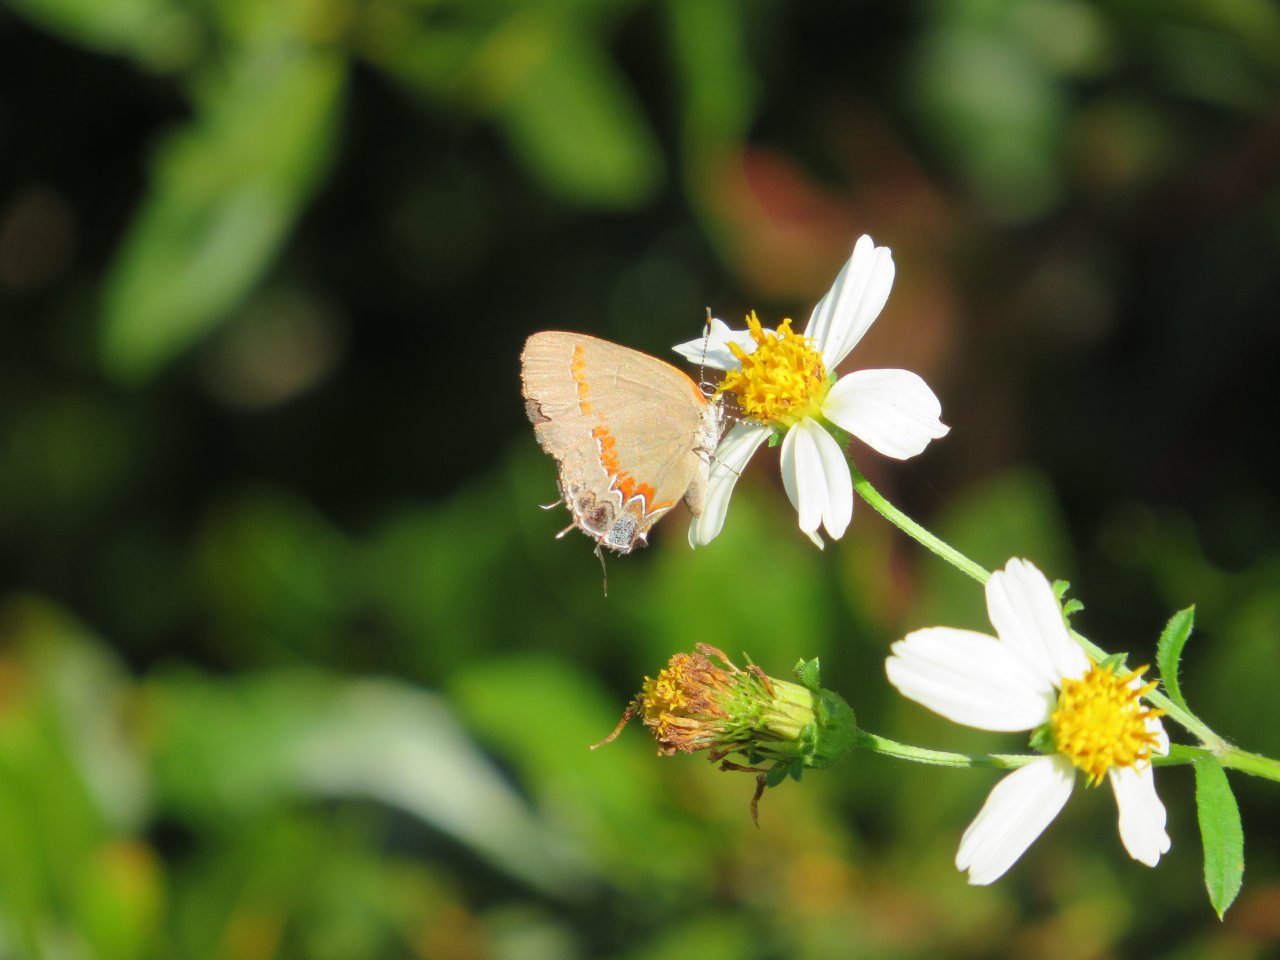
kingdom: Animalia
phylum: Arthropoda
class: Insecta
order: Lepidoptera
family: Lycaenidae
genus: Calycopis
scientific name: Calycopis cecrops
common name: Red-banded Hairstreak
